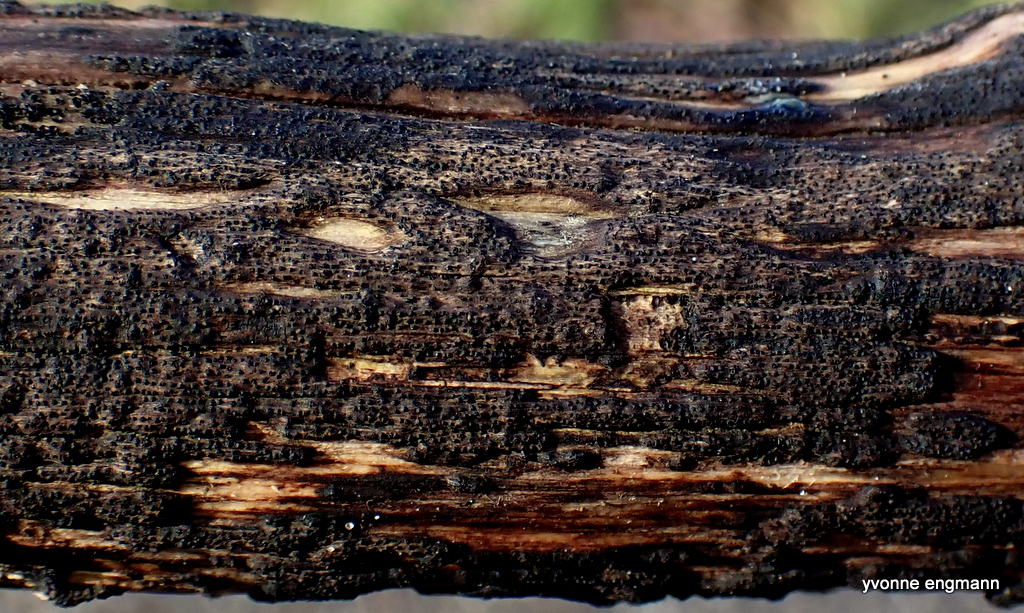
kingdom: Fungi
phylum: Ascomycota
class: Sordariomycetes
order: Xylariales
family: Diatrypaceae
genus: Eutypa
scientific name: Eutypa
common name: kulskorpe
